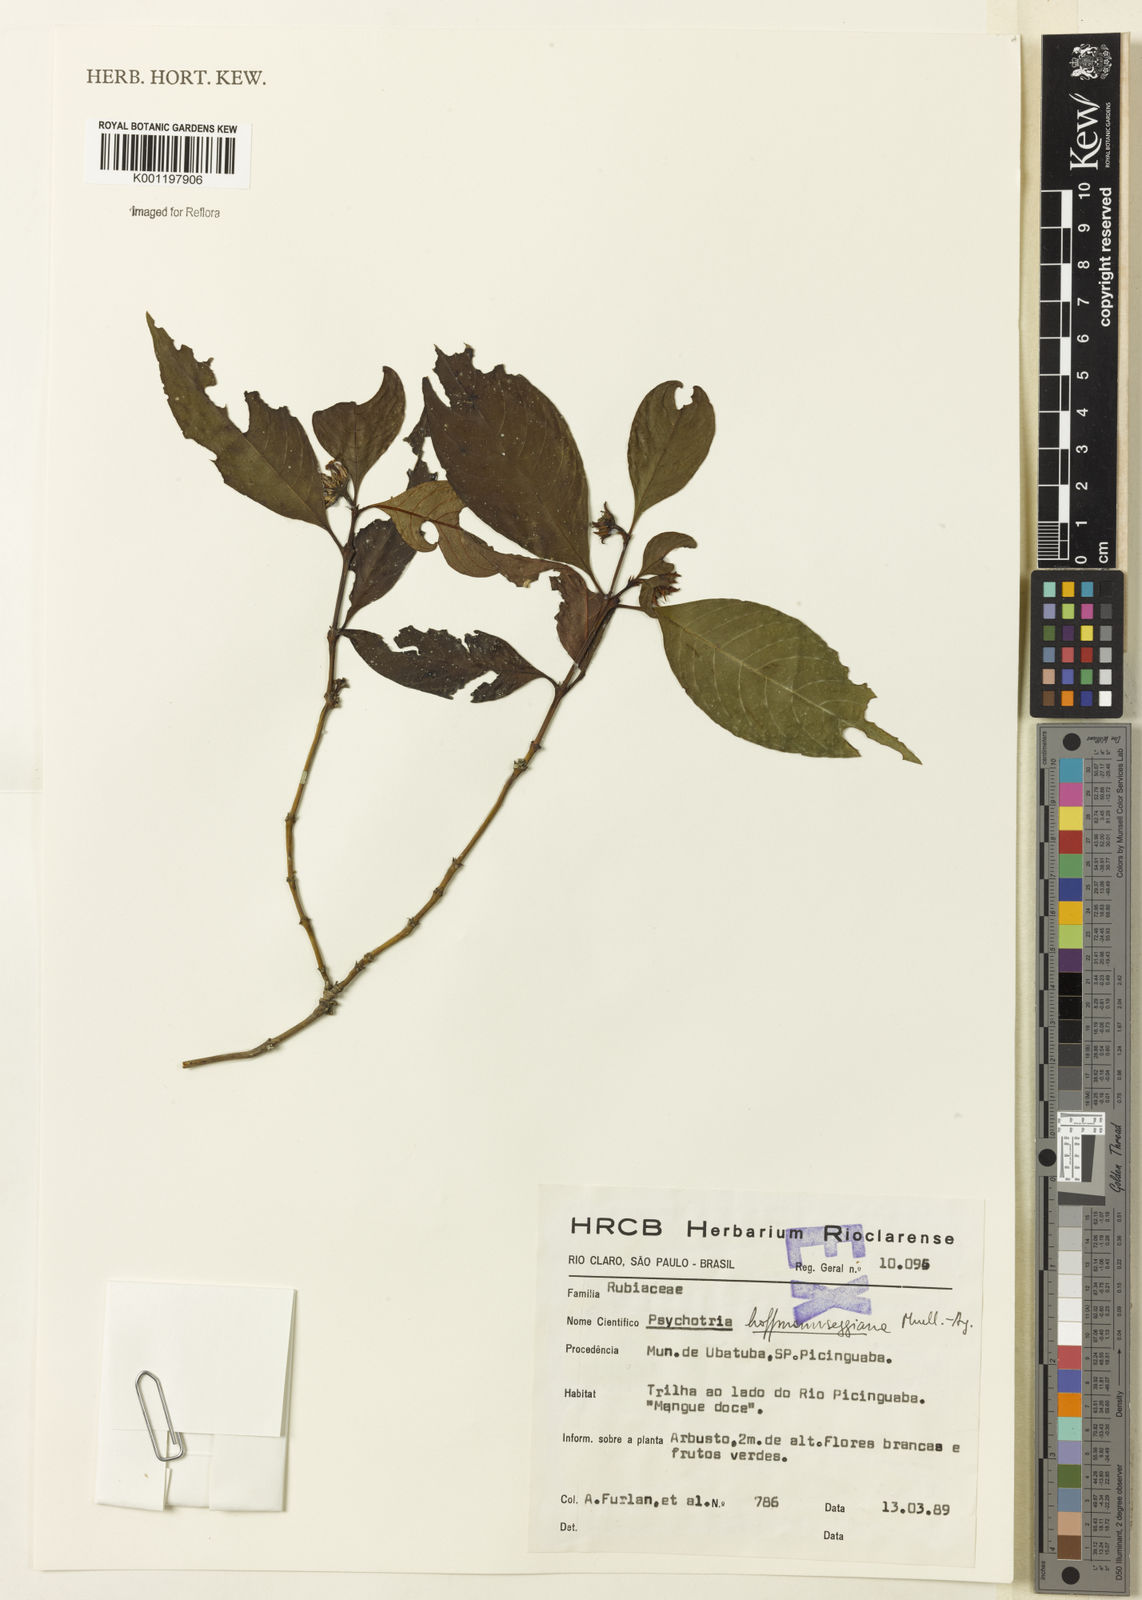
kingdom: Plantae
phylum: Tracheophyta
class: Magnoliopsida
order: Gentianales
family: Rubiaceae
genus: Psychotria
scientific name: Psychotria
